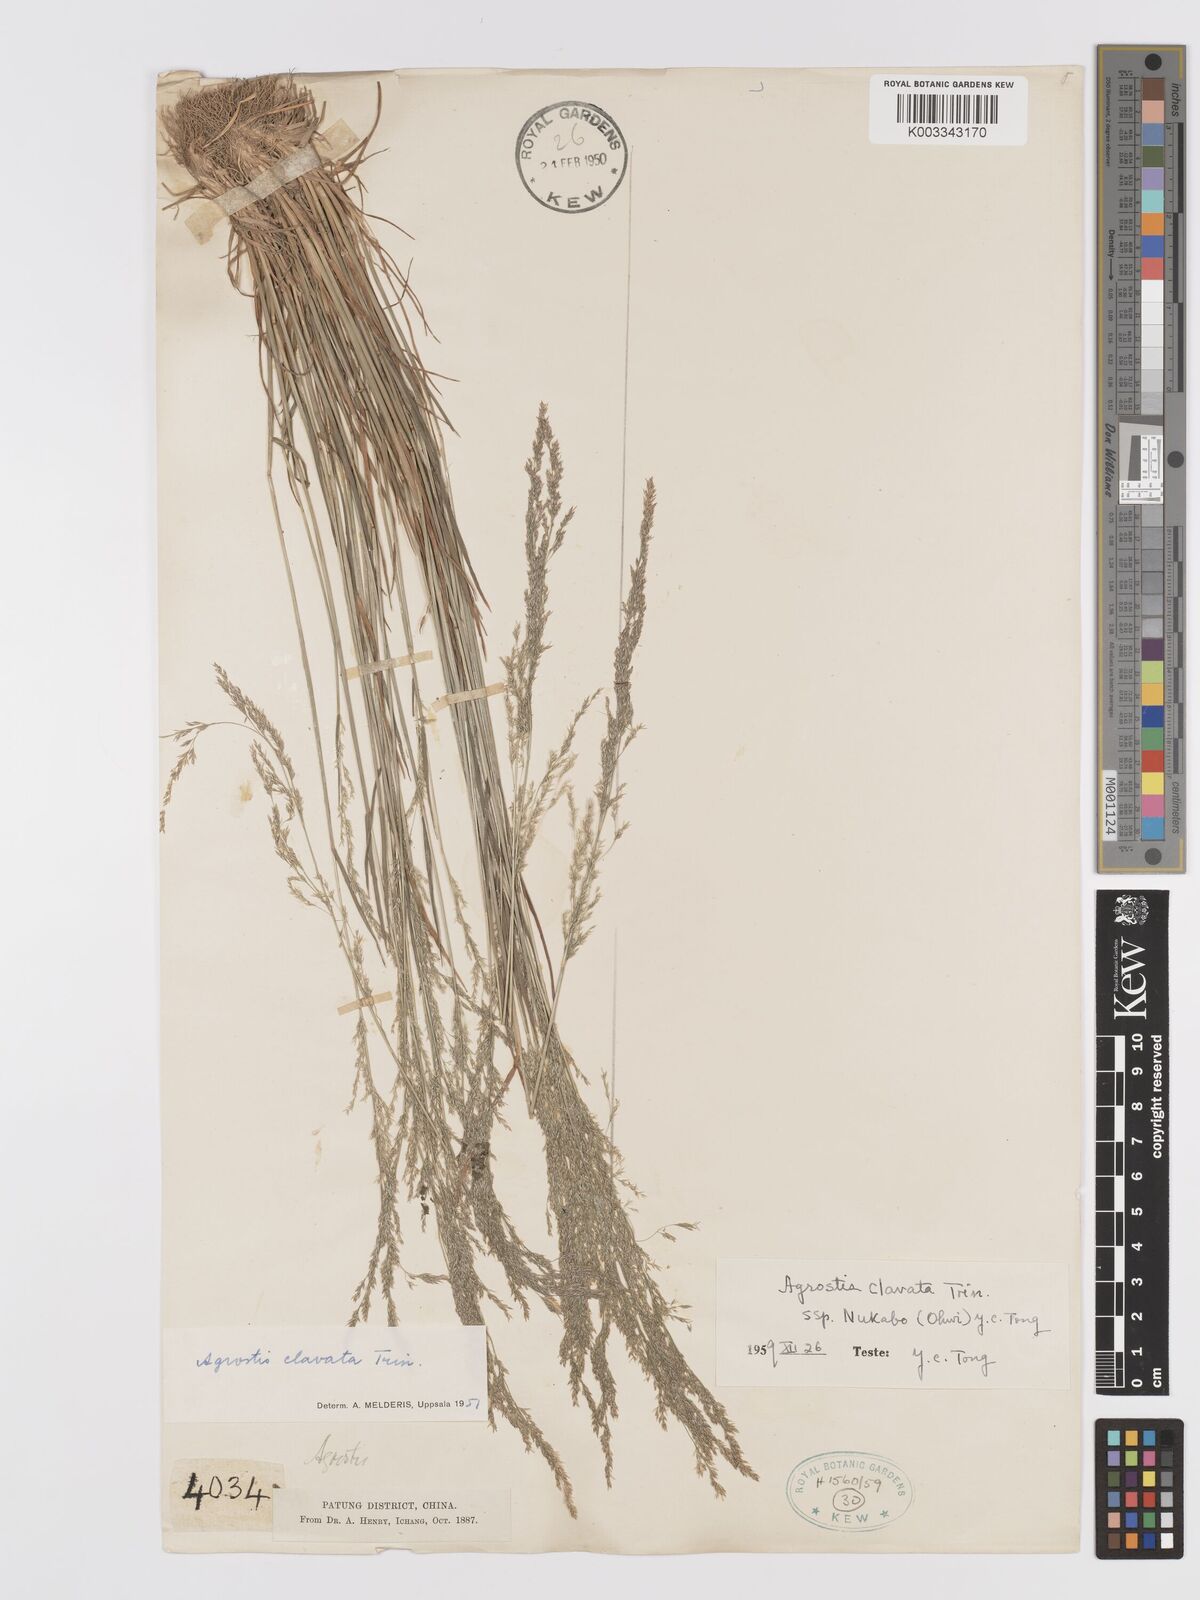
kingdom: Plantae
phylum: Tracheophyta
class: Liliopsida
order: Poales
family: Poaceae
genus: Agrostis
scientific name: Agrostis clavata
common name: Clavate bent
